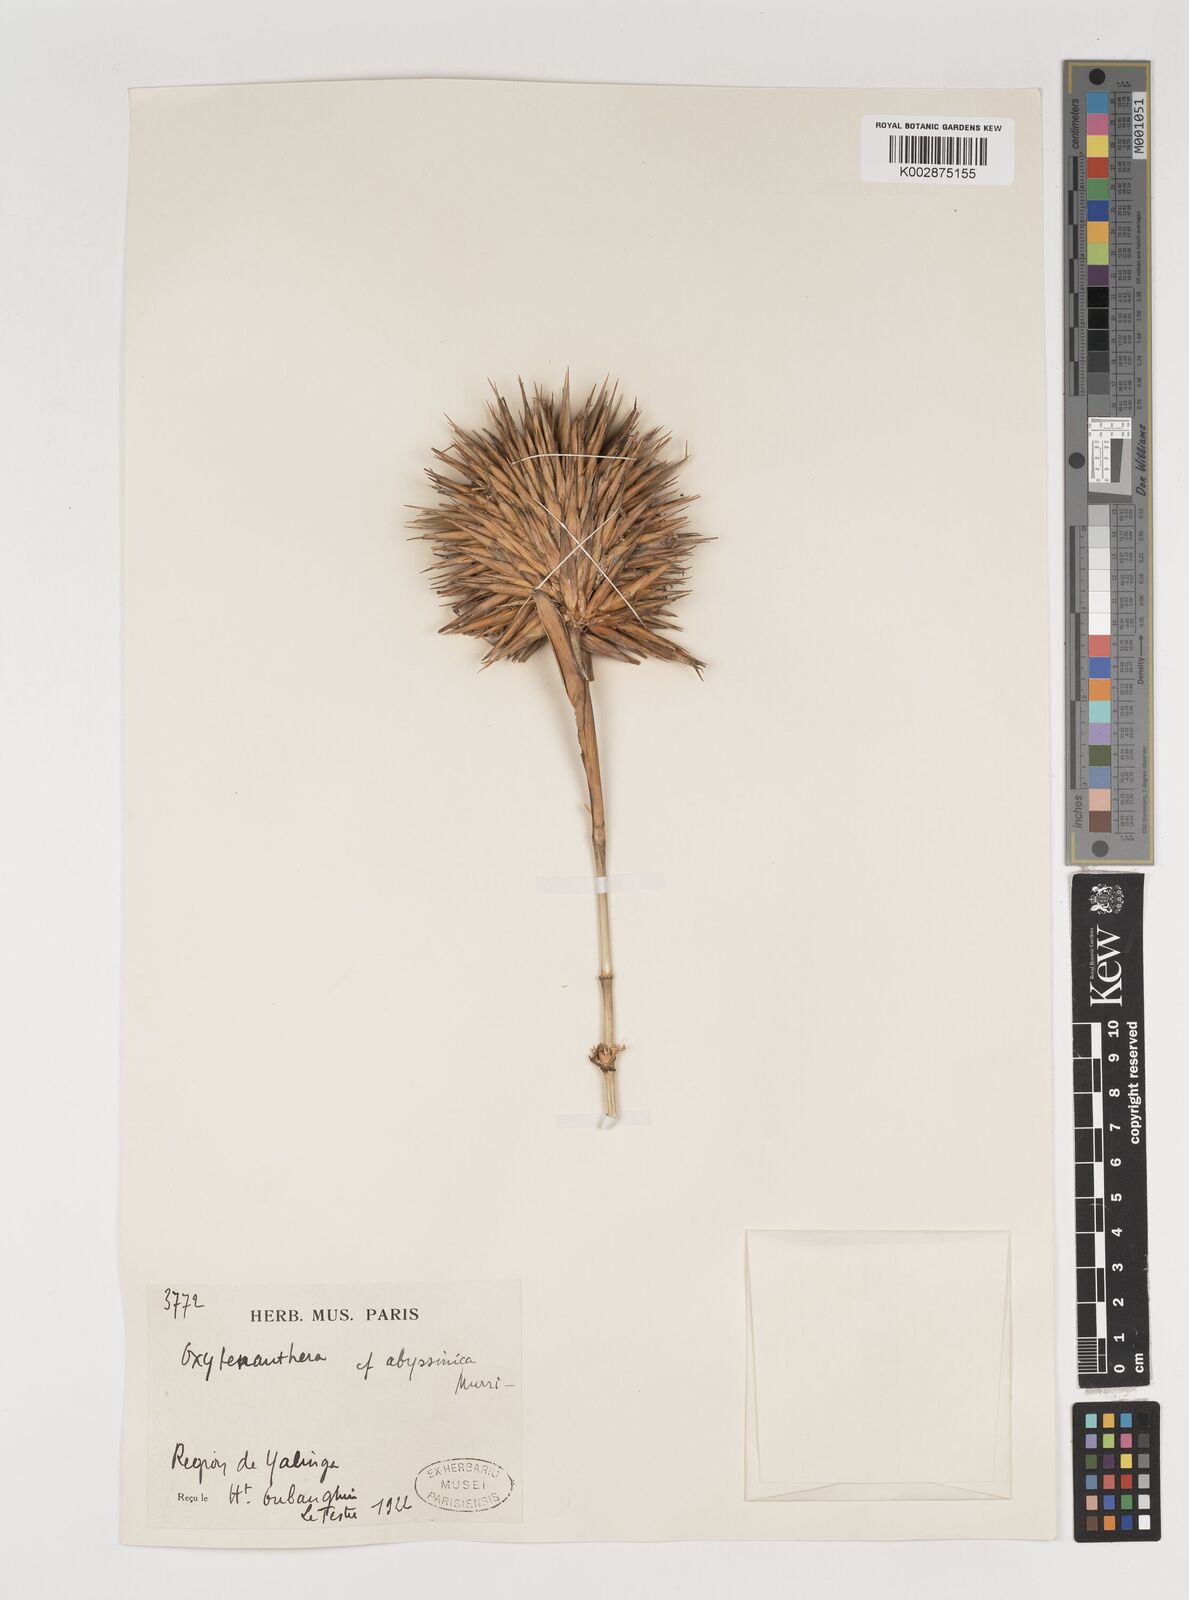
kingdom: Plantae
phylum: Tracheophyta
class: Liliopsida
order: Poales
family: Poaceae
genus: Oxytenanthera
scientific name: Oxytenanthera abyssinica
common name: Wine bamboo
